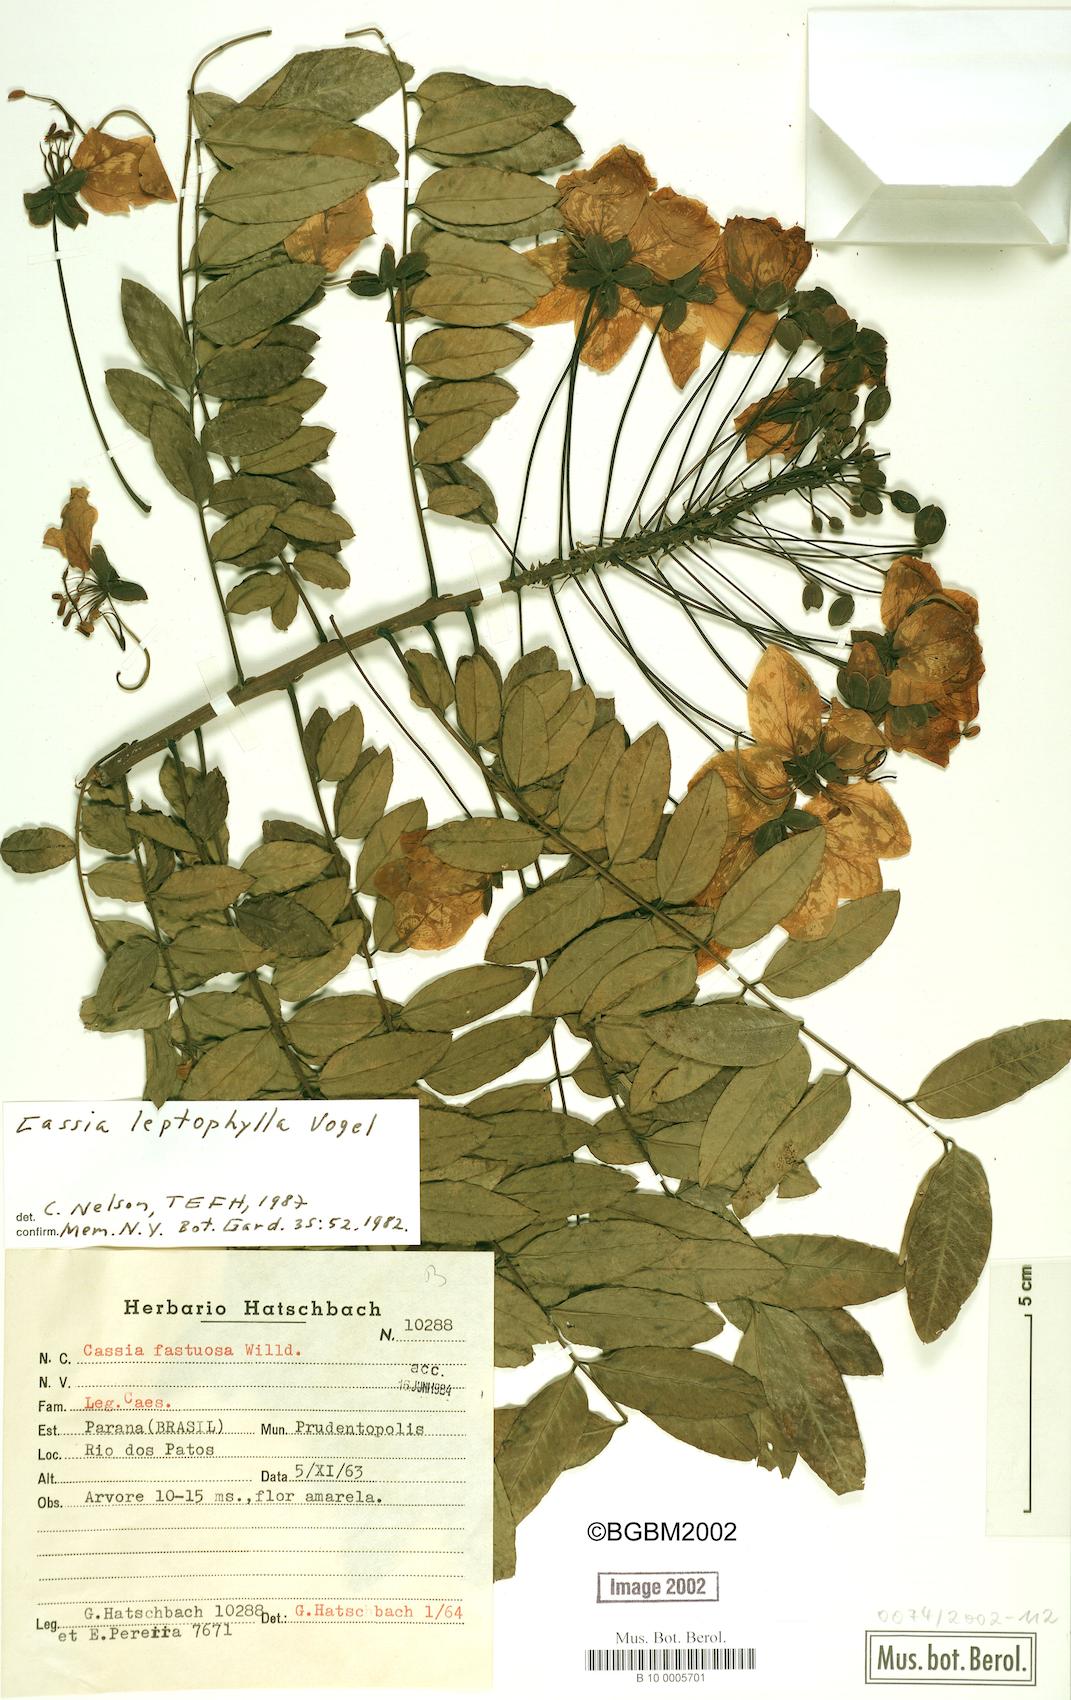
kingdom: Plantae
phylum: Tracheophyta
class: Magnoliopsida
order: Fabales
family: Fabaceae
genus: Cassia
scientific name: Cassia leptophylla
